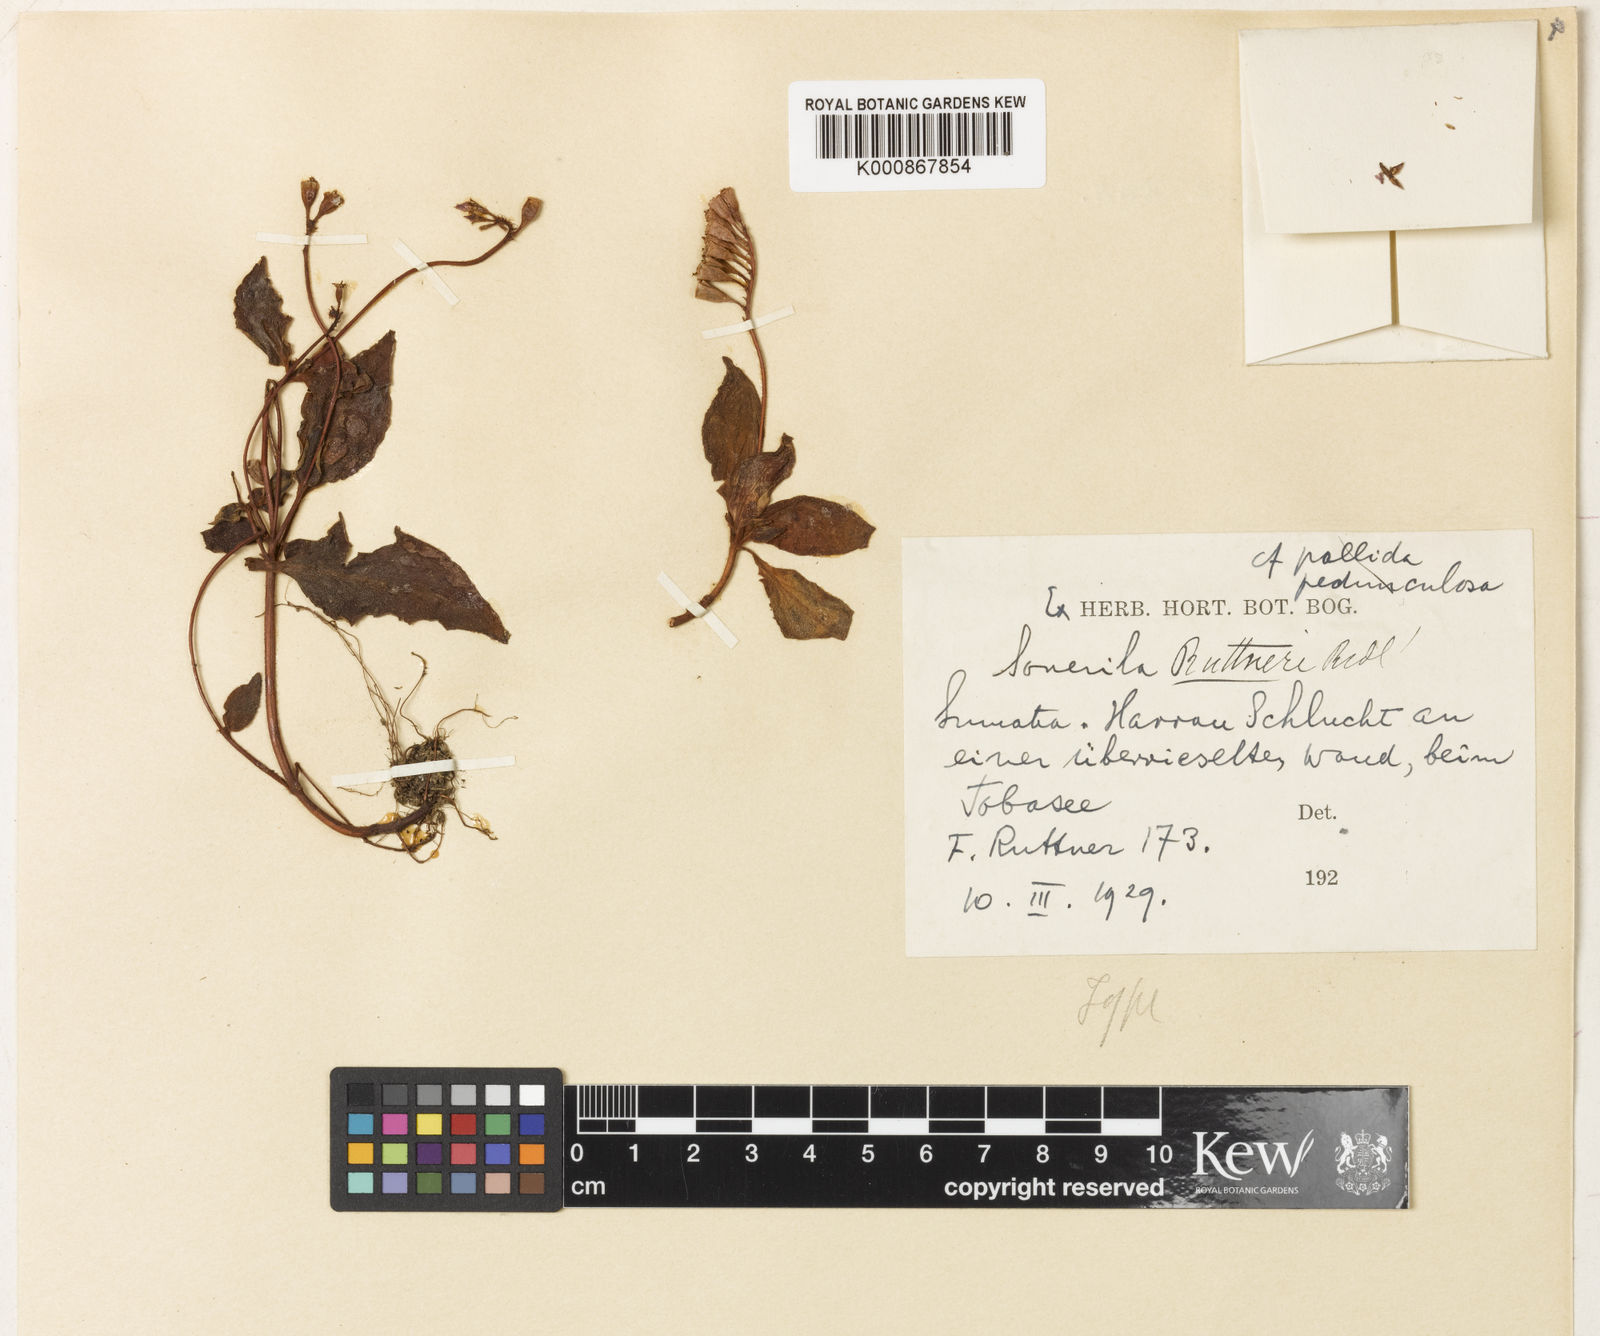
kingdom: Plantae
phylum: Tracheophyta
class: Magnoliopsida
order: Myrtales
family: Melastomataceae
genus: Sonerila
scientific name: Sonerila ruttneri
